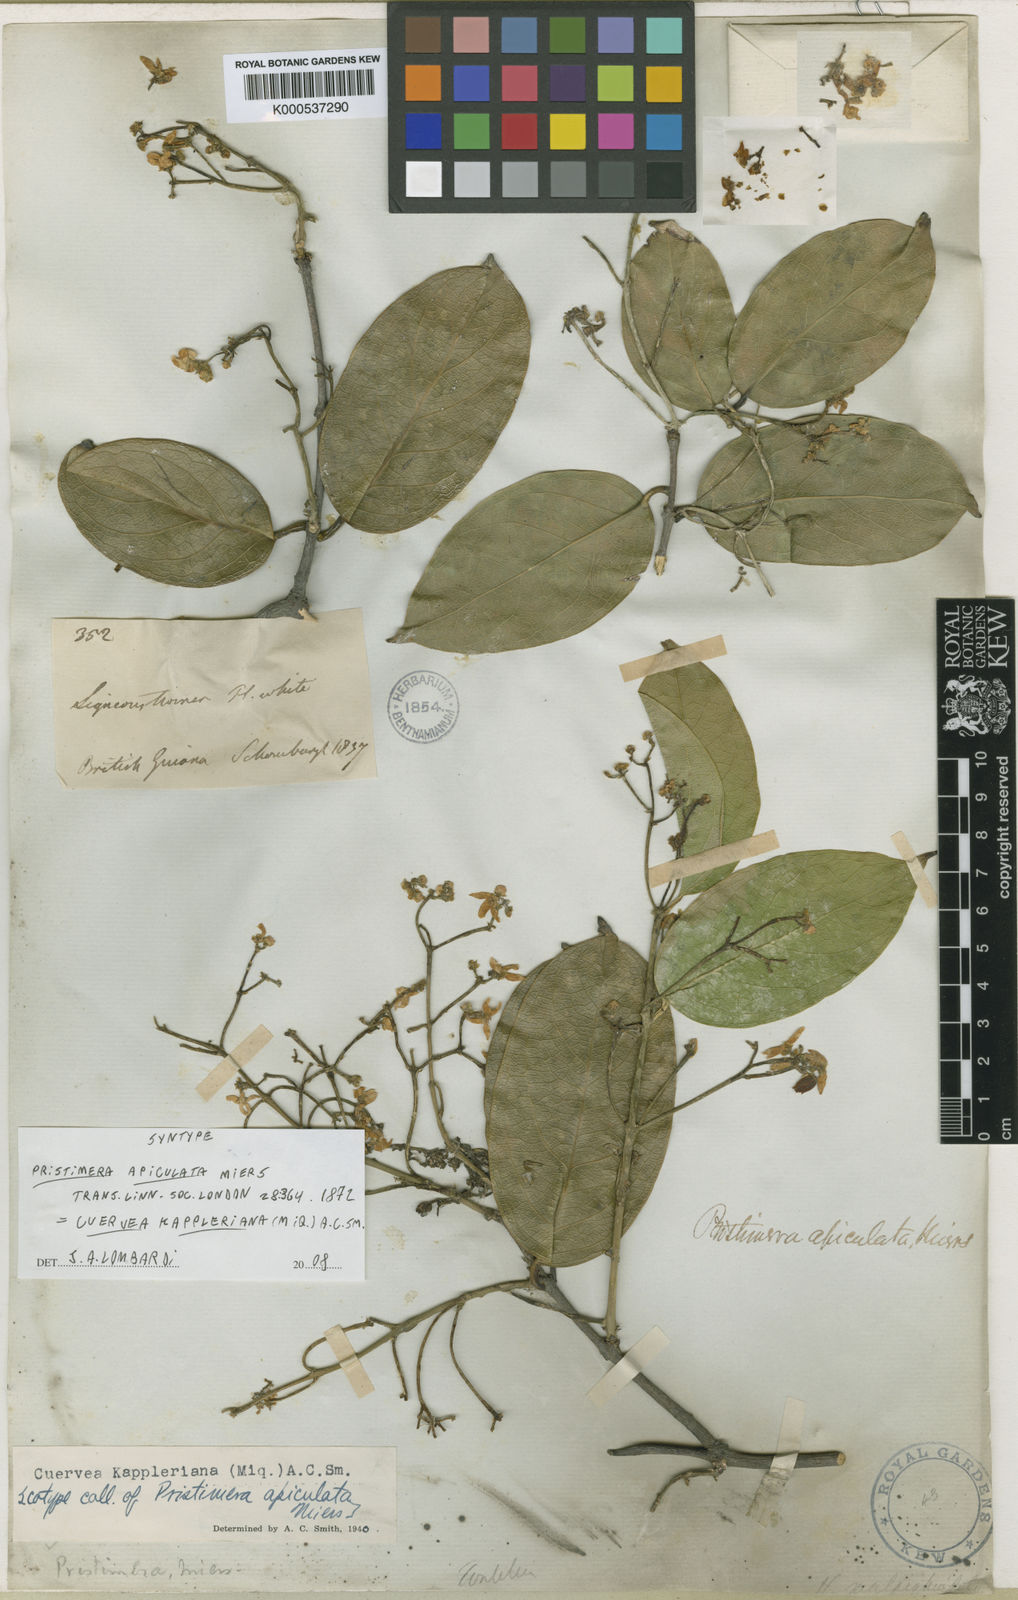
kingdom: Plantae
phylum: Tracheophyta
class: Magnoliopsida
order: Celastrales
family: Celastraceae
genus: Cuervea
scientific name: Cuervea kappleriana
